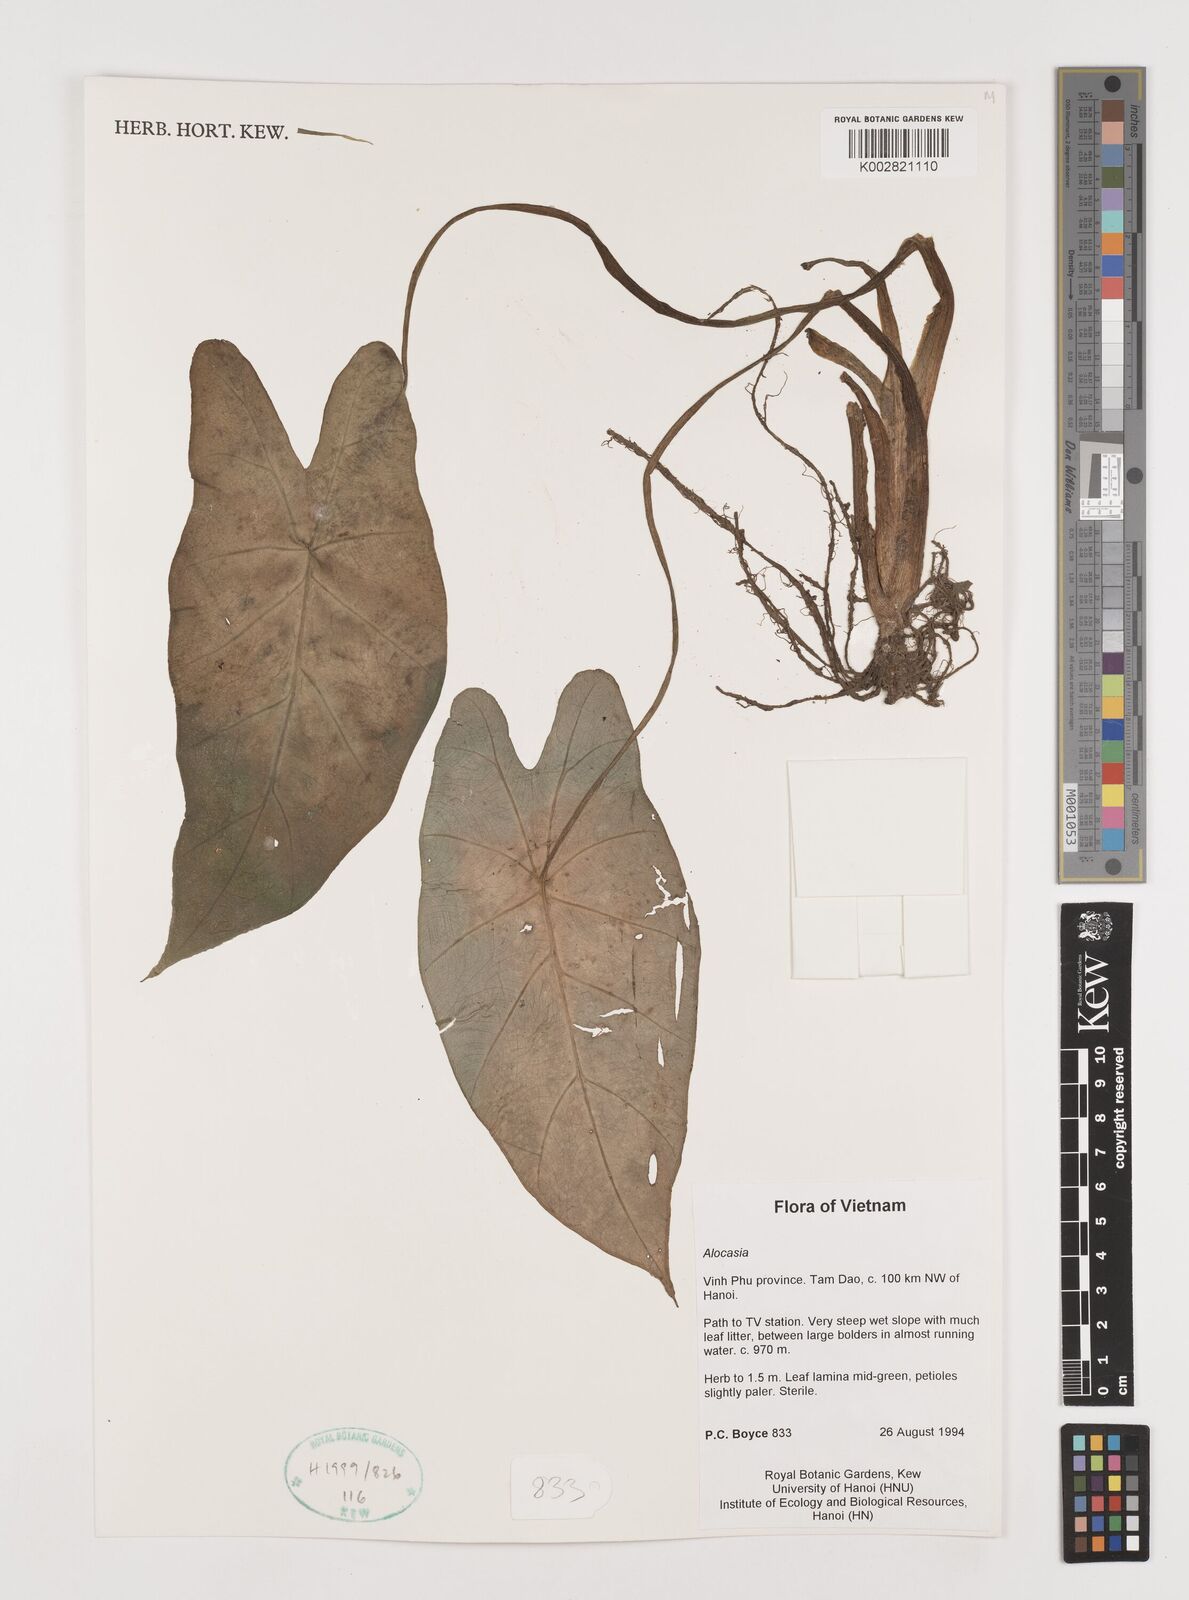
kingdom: Plantae
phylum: Tracheophyta
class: Liliopsida
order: Alismatales
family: Araceae
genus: Alocasia
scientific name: Alocasia
